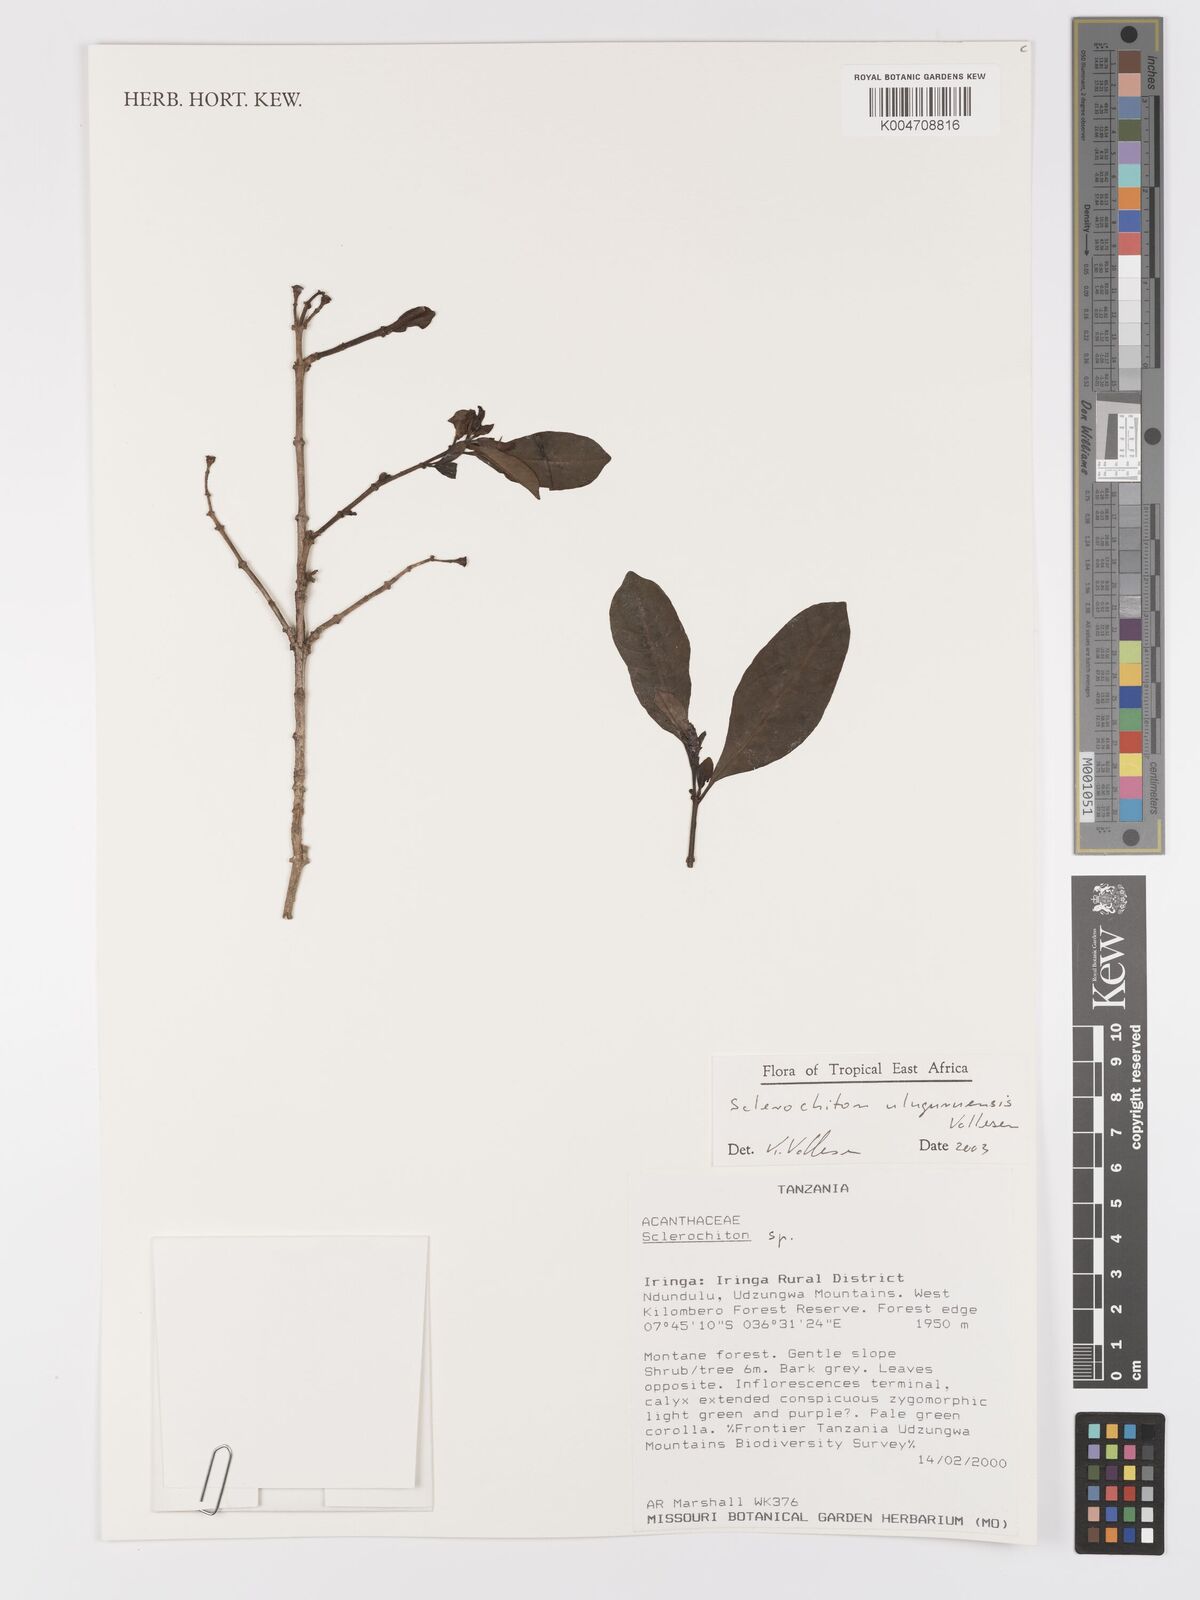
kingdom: Plantae
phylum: Tracheophyta
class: Magnoliopsida
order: Lamiales
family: Acanthaceae
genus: Sclerochiton
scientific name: Sclerochiton uluguruensis
